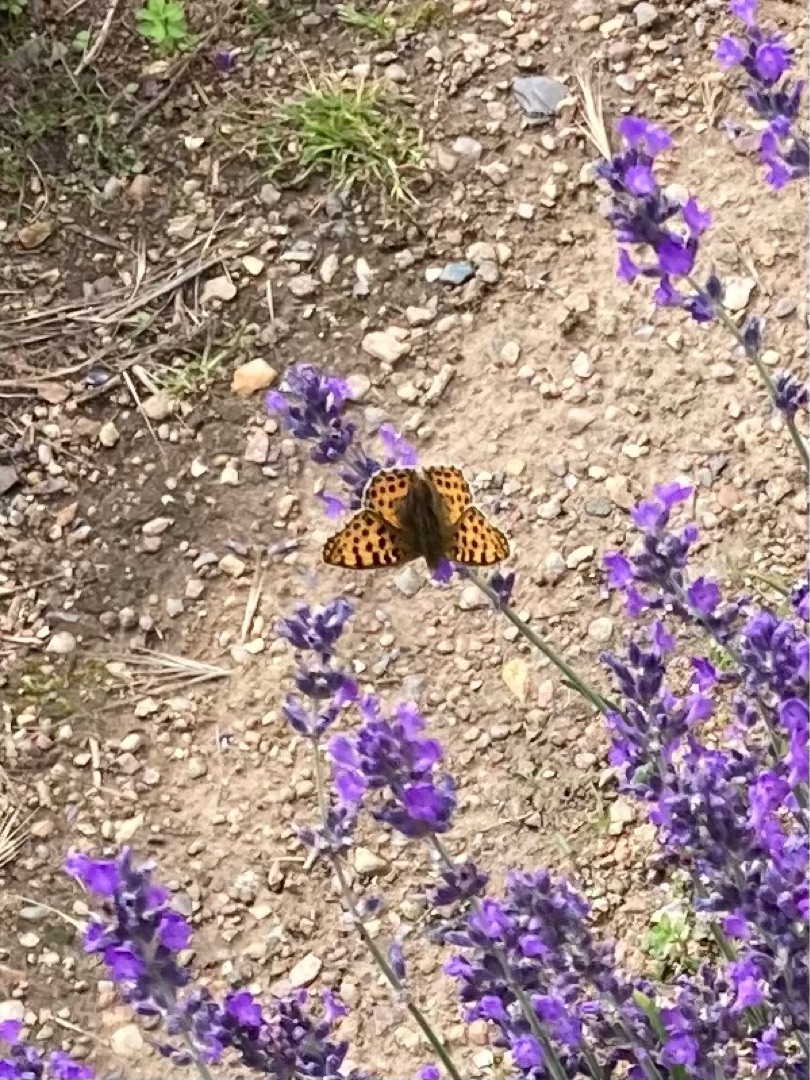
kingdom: Animalia
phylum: Arthropoda
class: Insecta
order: Lepidoptera
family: Nymphalidae
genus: Issoria
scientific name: Issoria lathonia
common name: Storplettet perlemorsommerfugl
